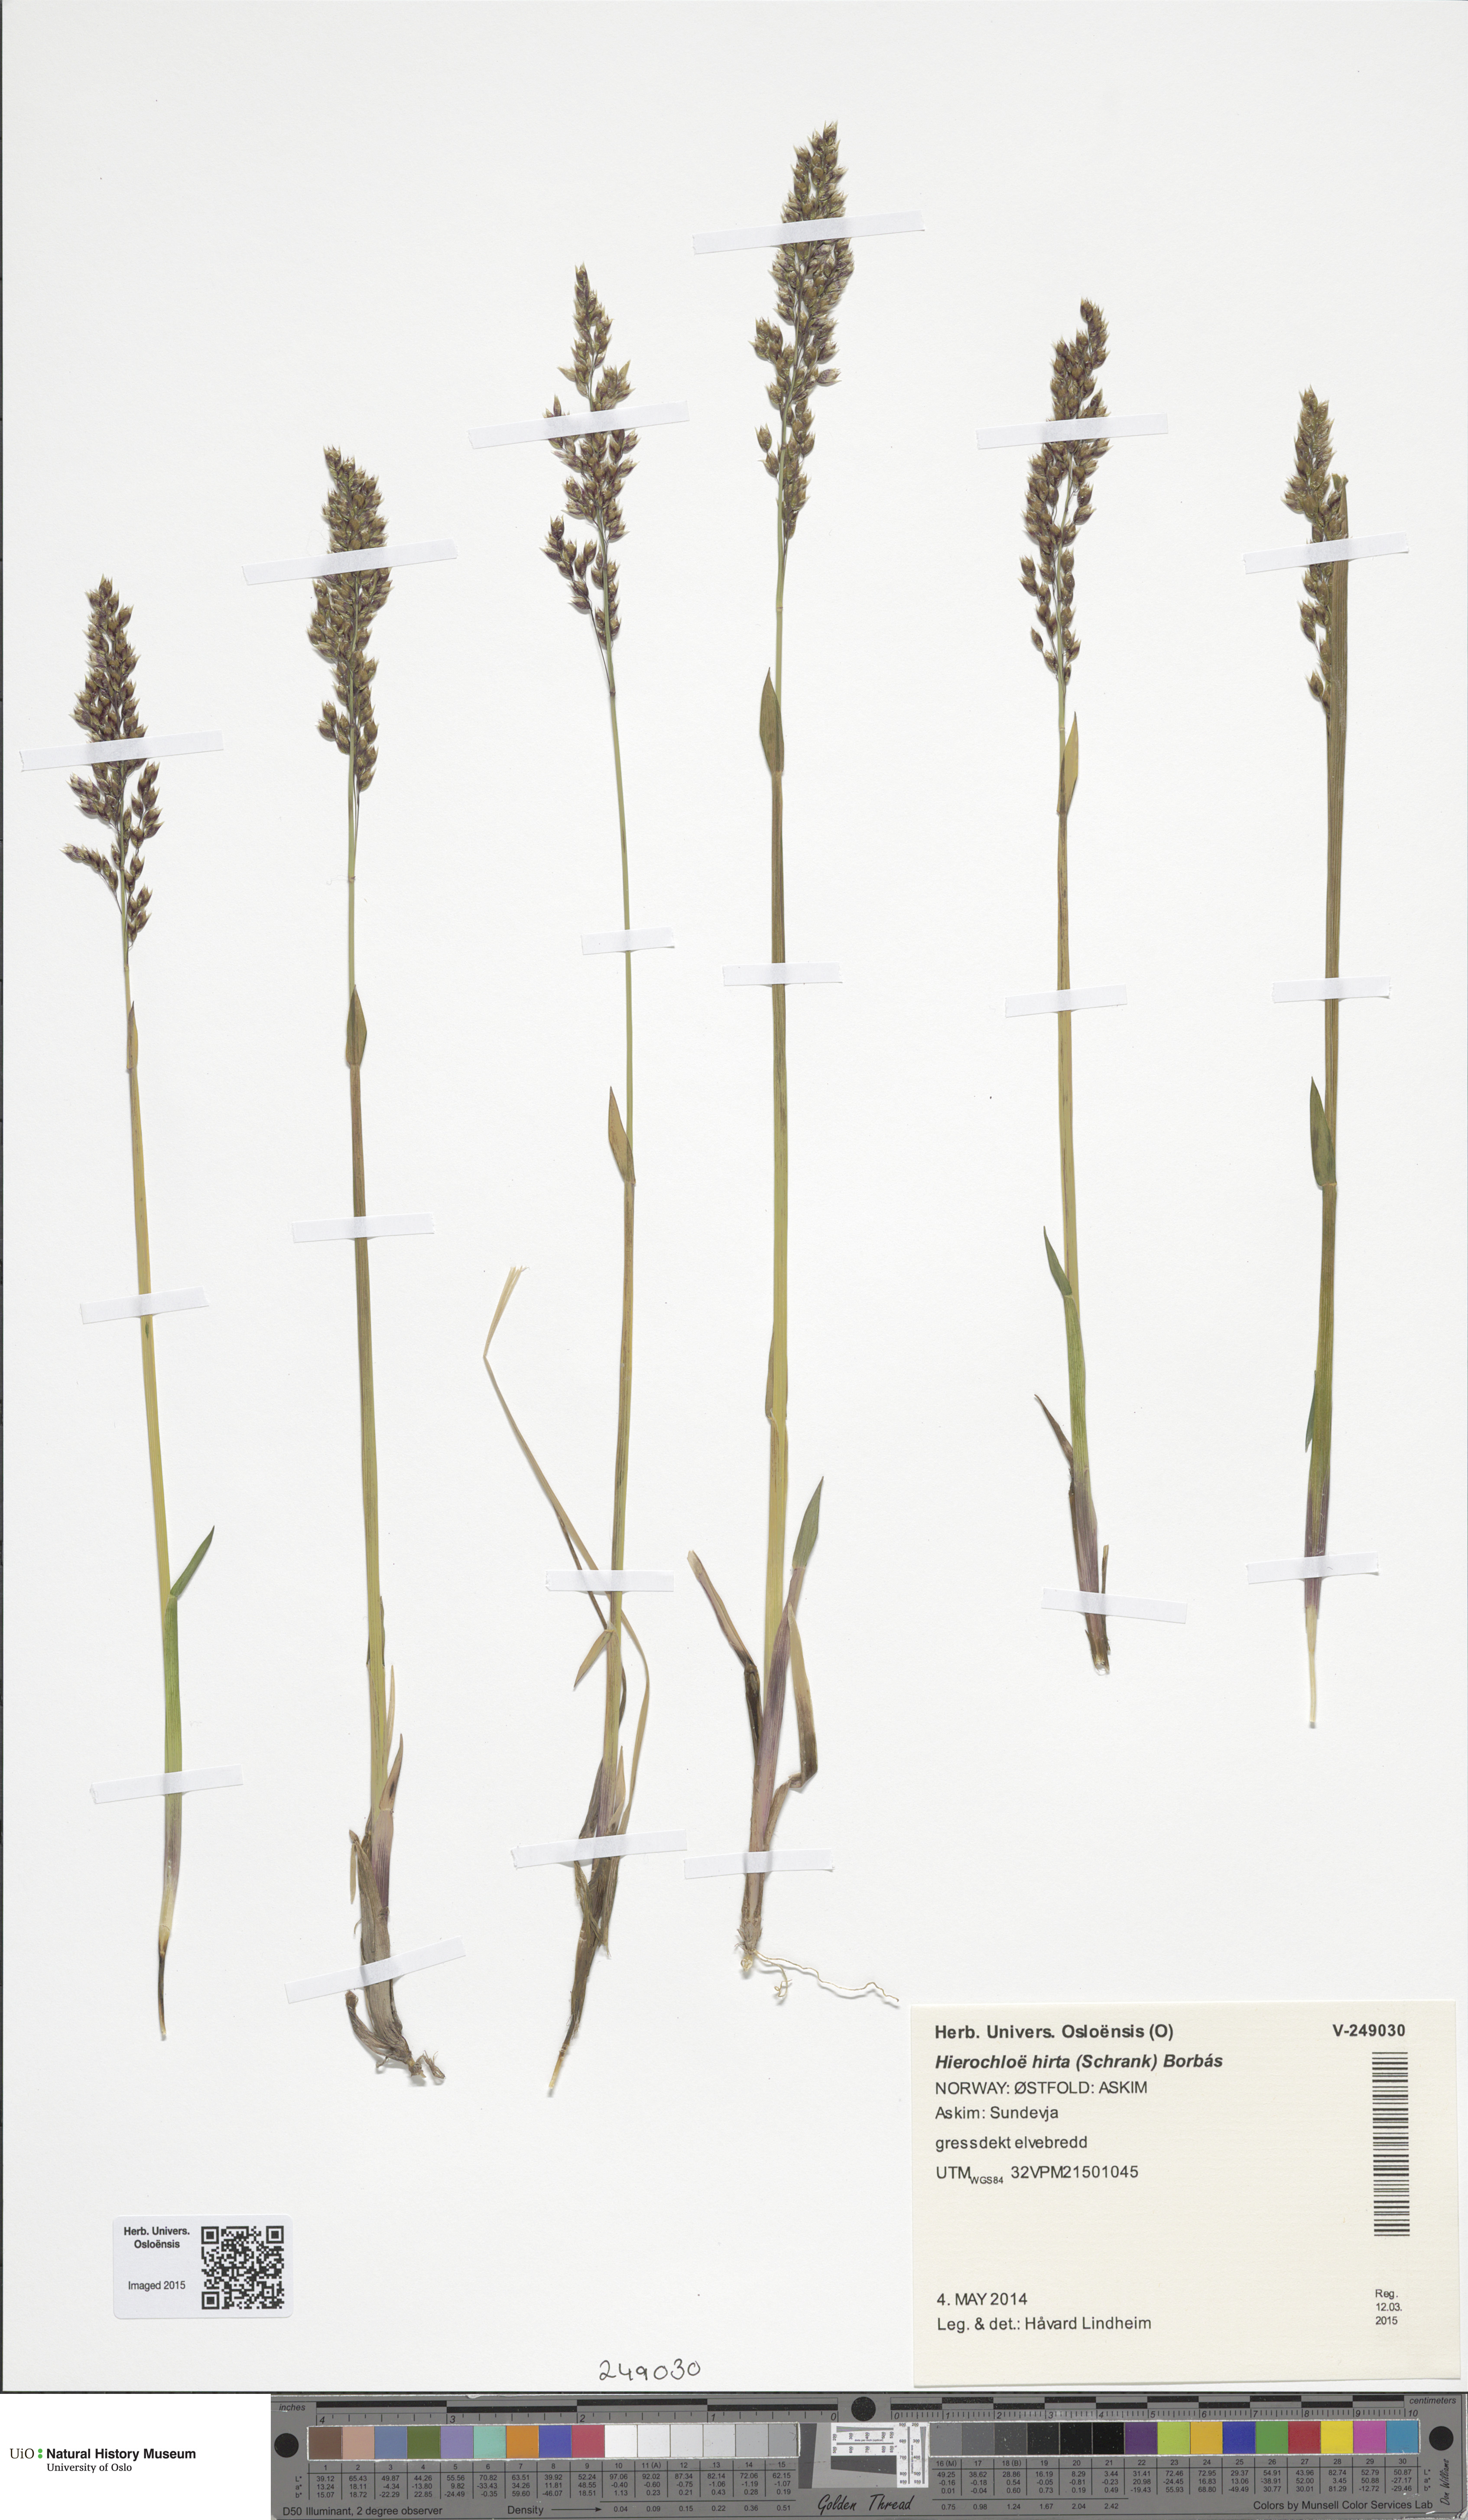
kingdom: Plantae
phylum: Tracheophyta
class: Liliopsida
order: Poales
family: Poaceae
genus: Anthoxanthum
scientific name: Anthoxanthum nitens
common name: Holy grass
